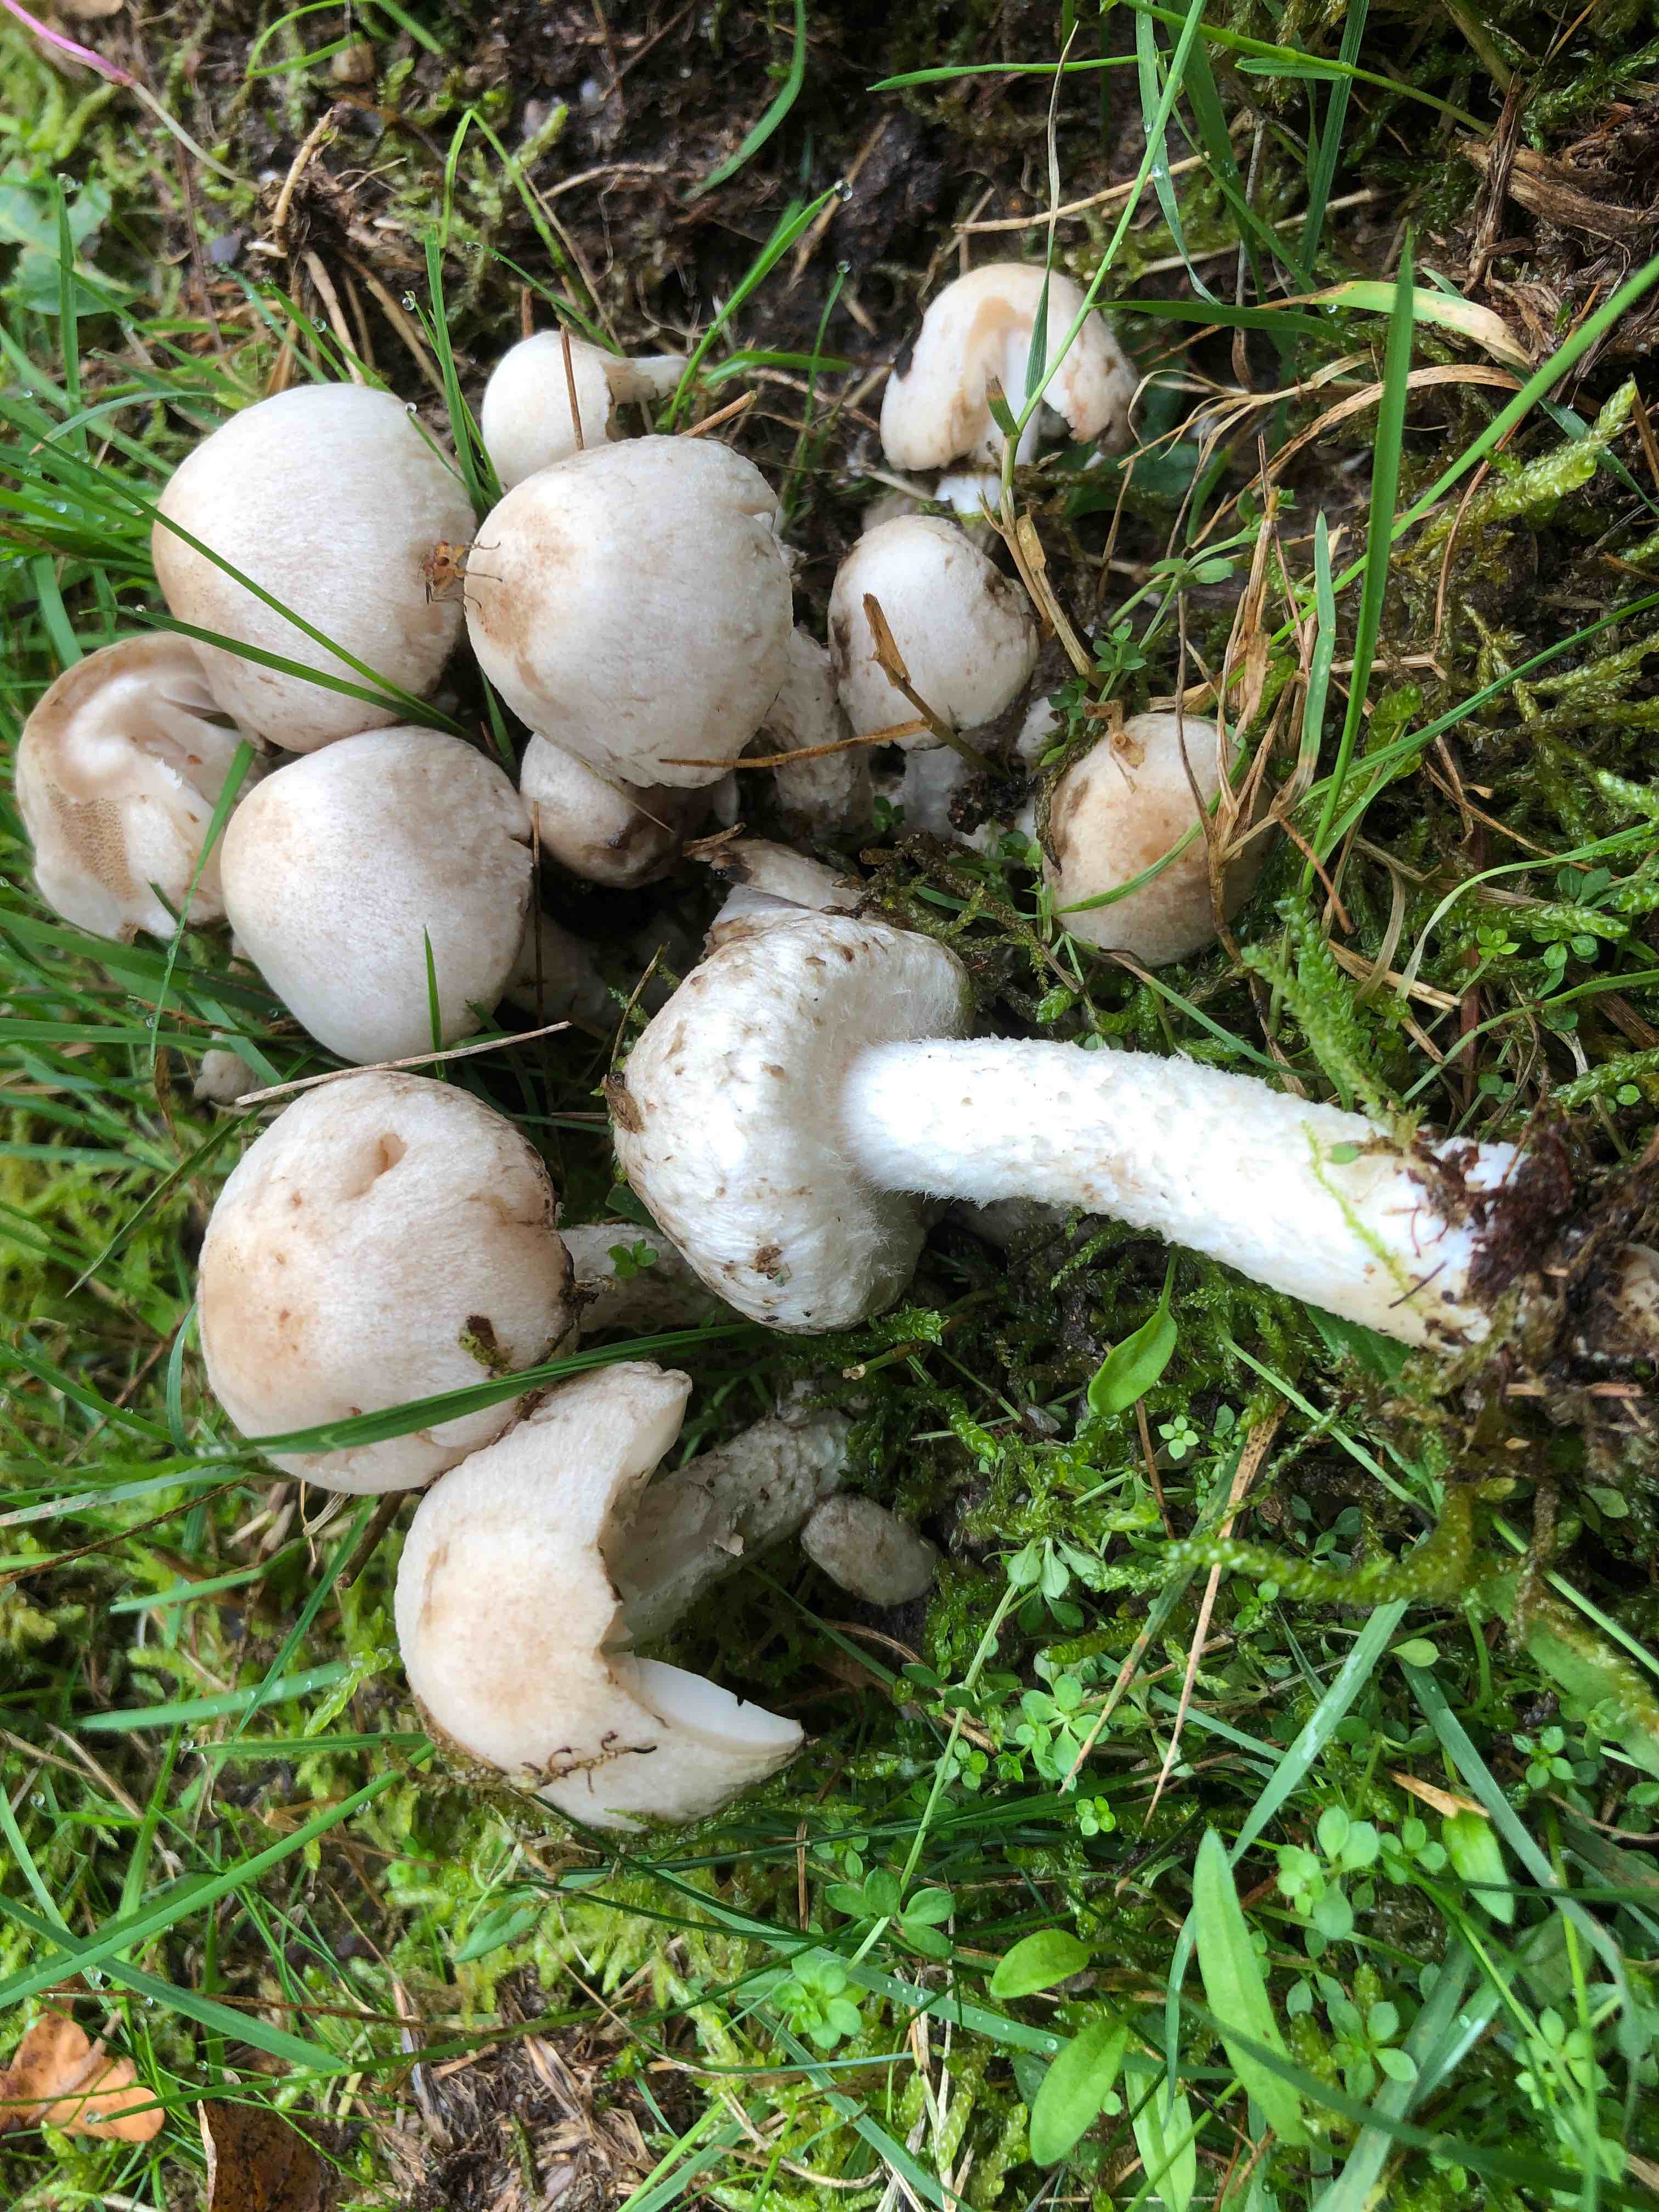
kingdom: Fungi
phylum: Basidiomycota
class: Agaricomycetes
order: Agaricales
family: Psathyrellaceae
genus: Psathyrella
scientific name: Psathyrella cotonea
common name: skællet mørkhat
